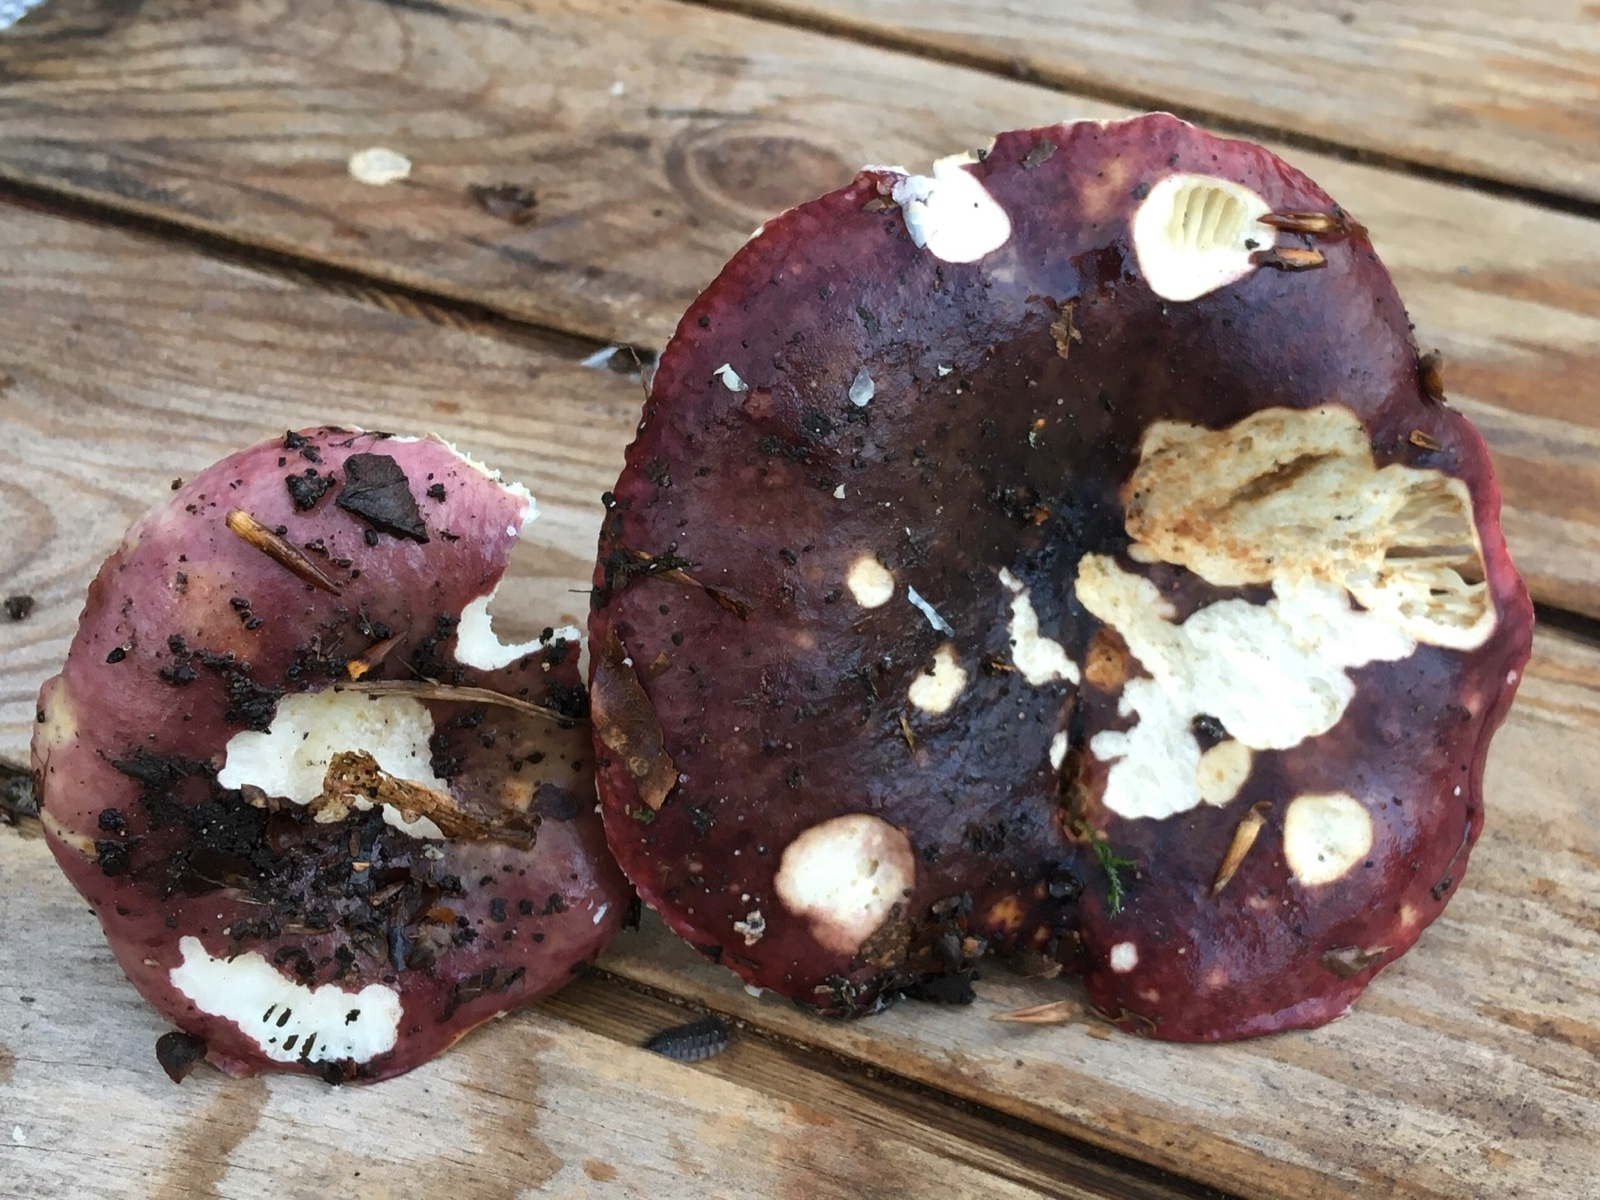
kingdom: Fungi
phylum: Basidiomycota
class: Agaricomycetes
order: Russulales
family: Russulaceae
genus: Russula
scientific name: Russula atropurpurea
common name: purpurbroget skørhat
